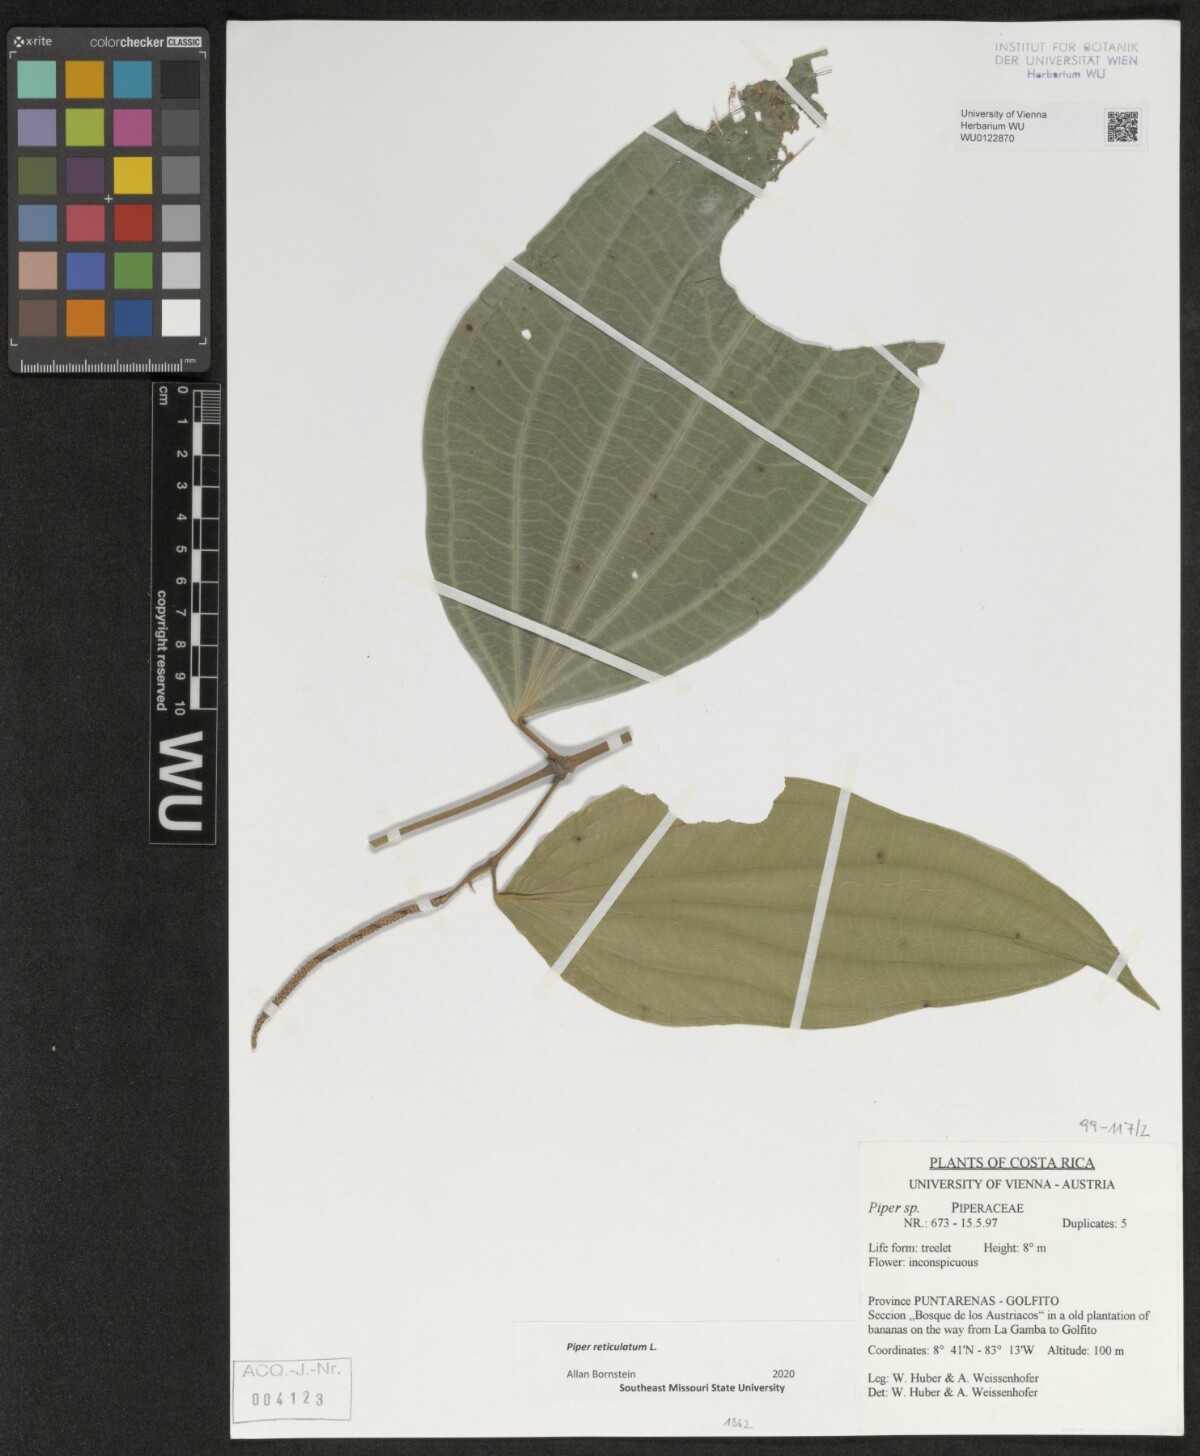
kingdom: Plantae
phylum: Tracheophyta
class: Magnoliopsida
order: Piperales
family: Piperaceae
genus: Piper
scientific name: Piper reticulatum
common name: Wild cane
